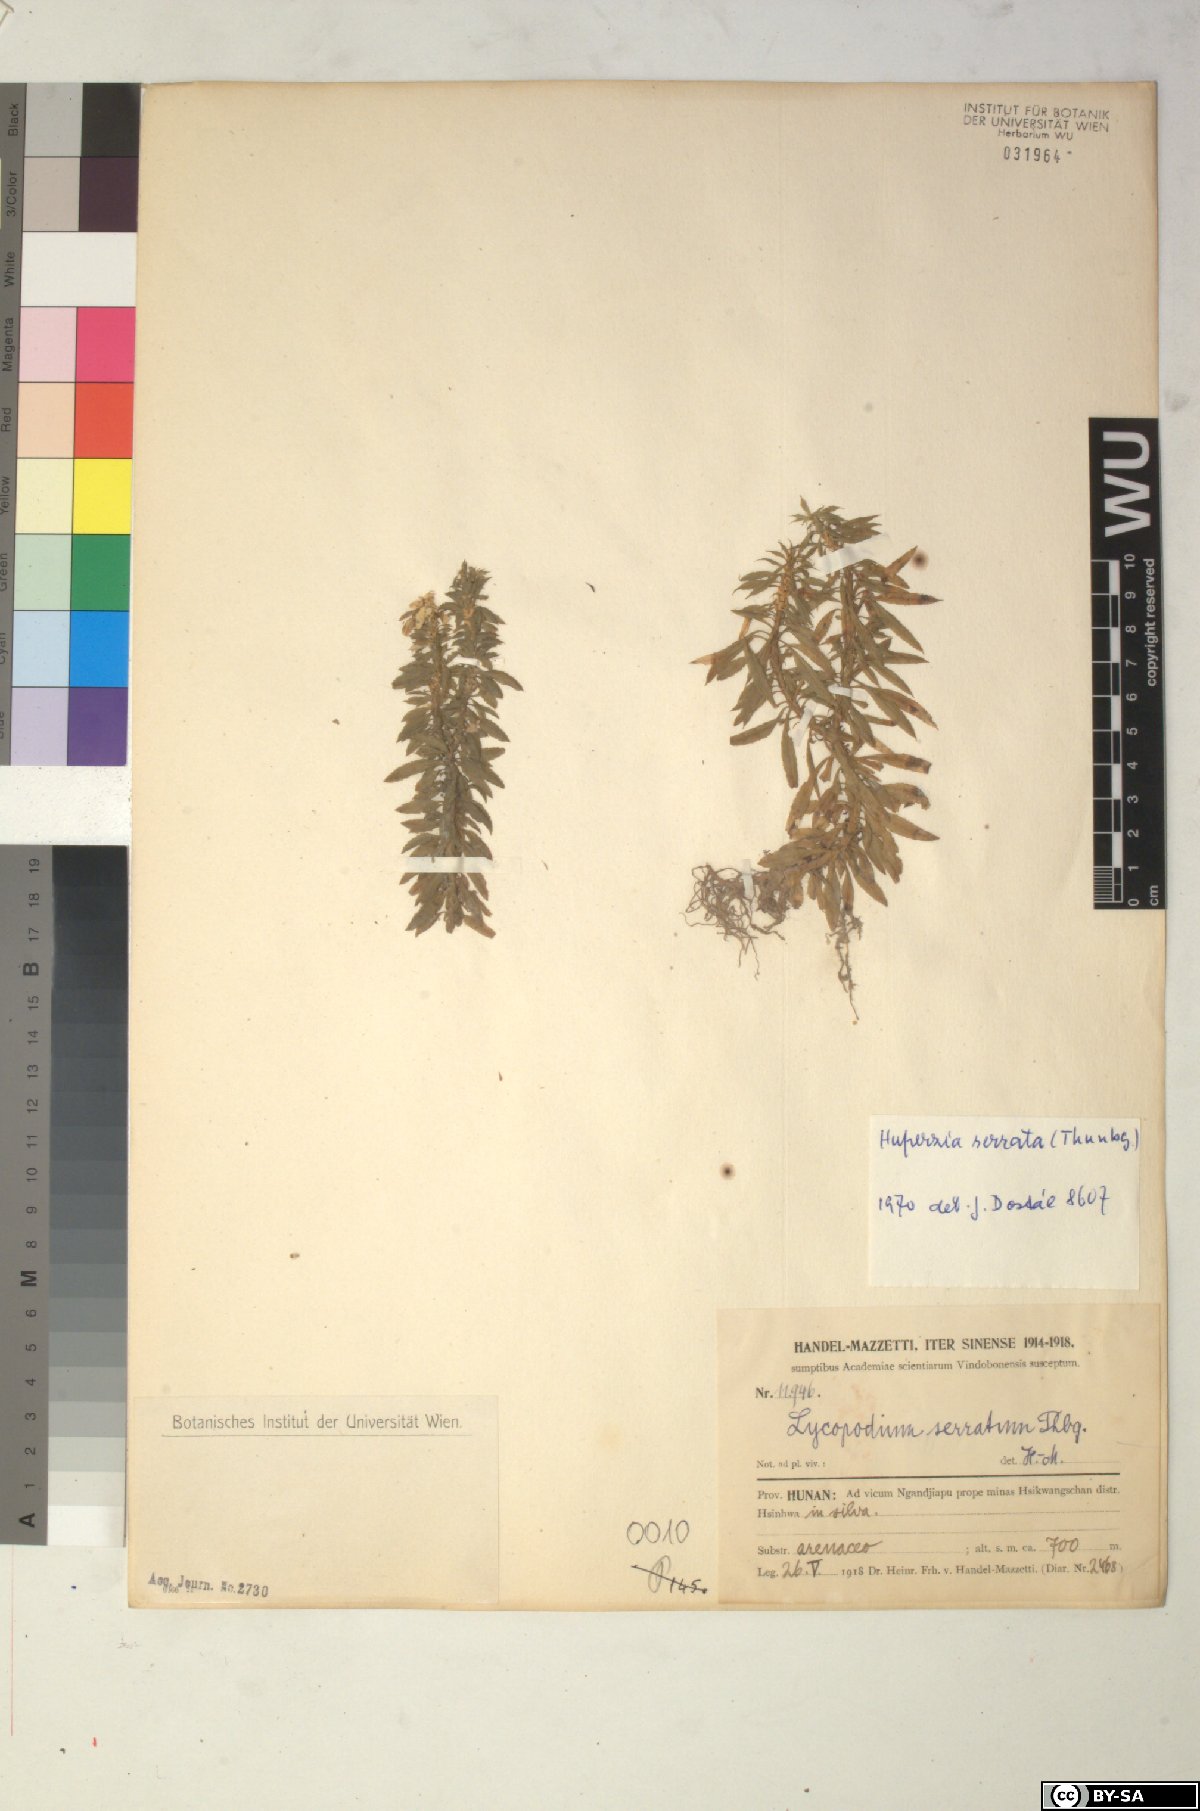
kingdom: Plantae
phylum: Tracheophyta
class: Lycopodiopsida
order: Lycopodiales
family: Lycopodiaceae
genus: Huperzia
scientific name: Huperzia serrata
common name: Toothed club-moss
